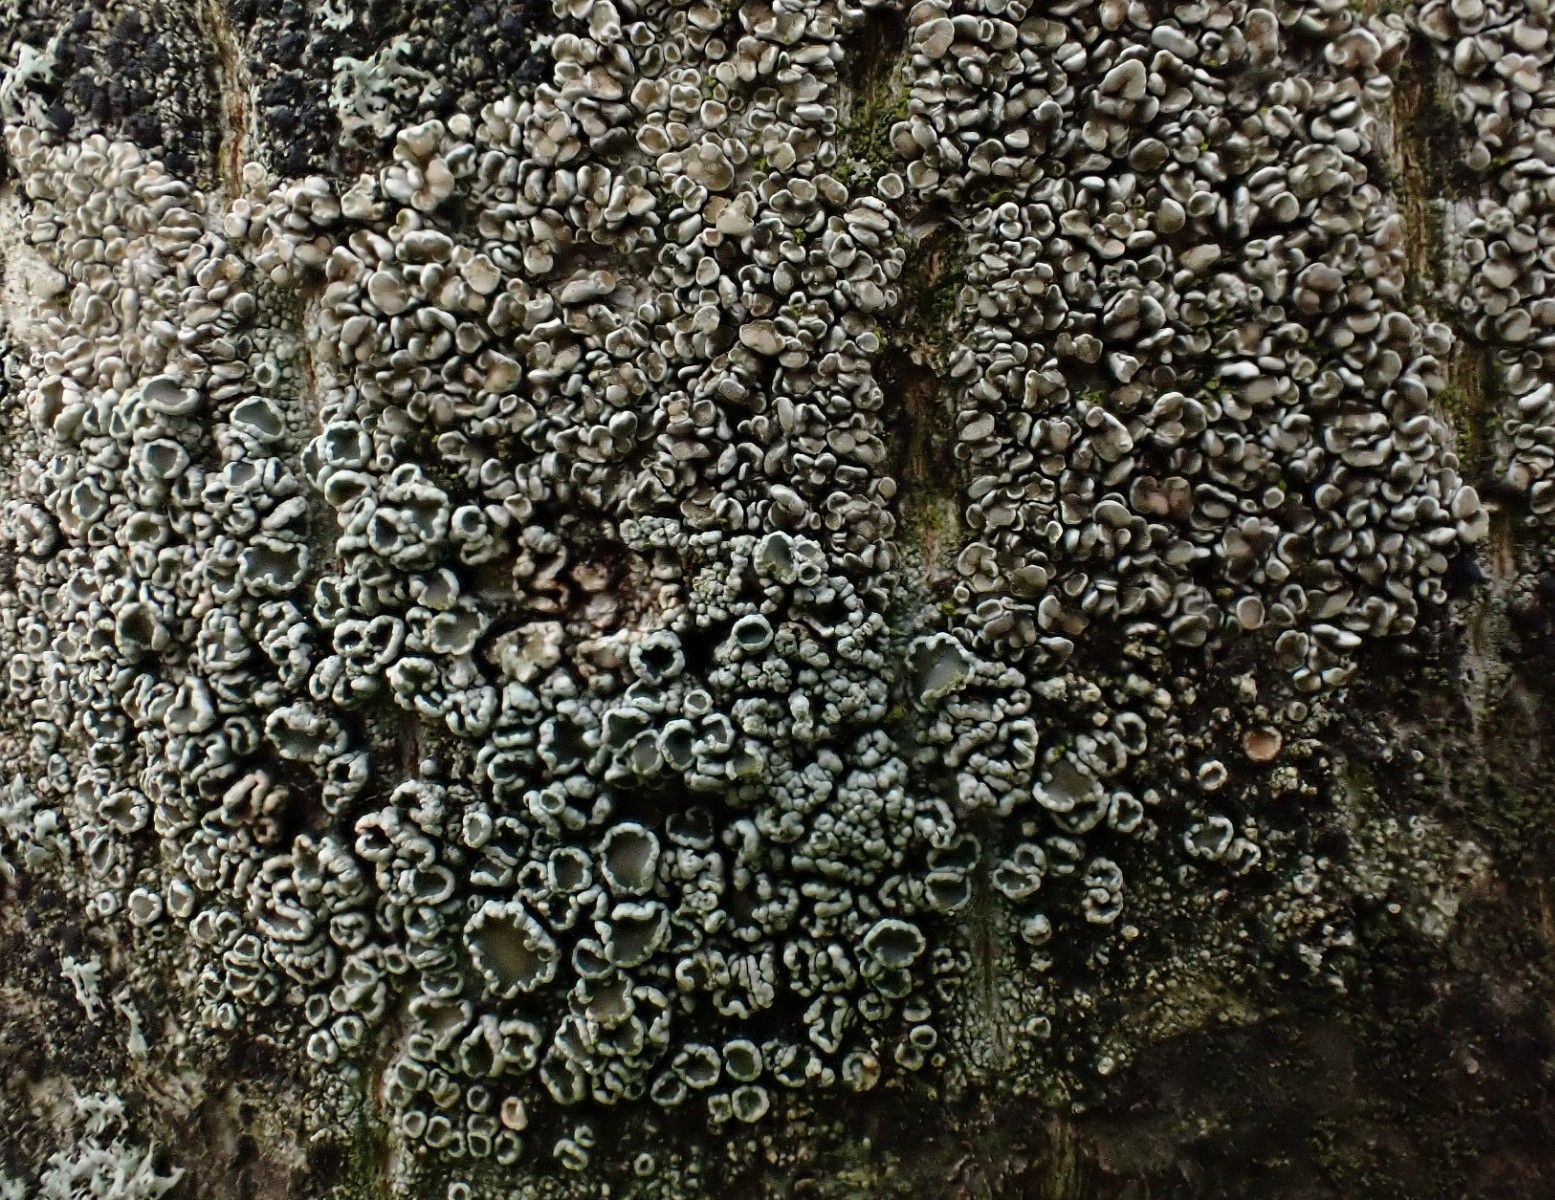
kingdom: Fungi
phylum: Ascomycota
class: Lecanoromycetes
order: Lecanorales
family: Lecanoraceae
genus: Lecanora
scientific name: Lecanora chlarotera
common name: brun kantskivelav
